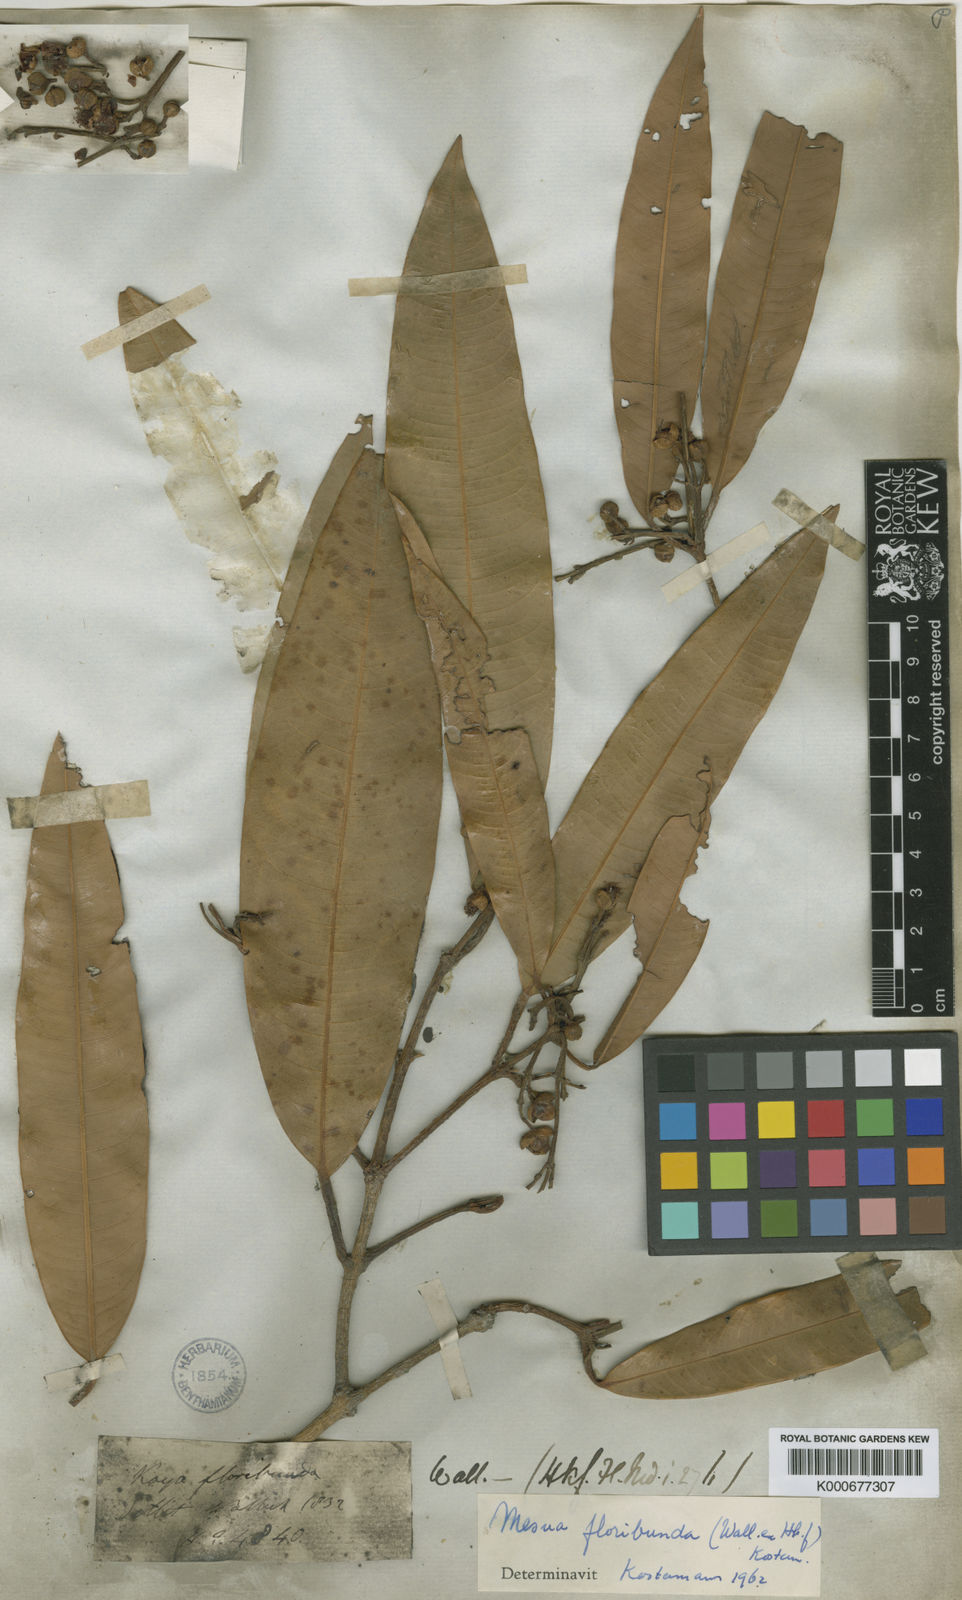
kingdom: Plantae
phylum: Tracheophyta
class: Magnoliopsida
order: Malpighiales
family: Calophyllaceae
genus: Kayea
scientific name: Kayea floribunda
